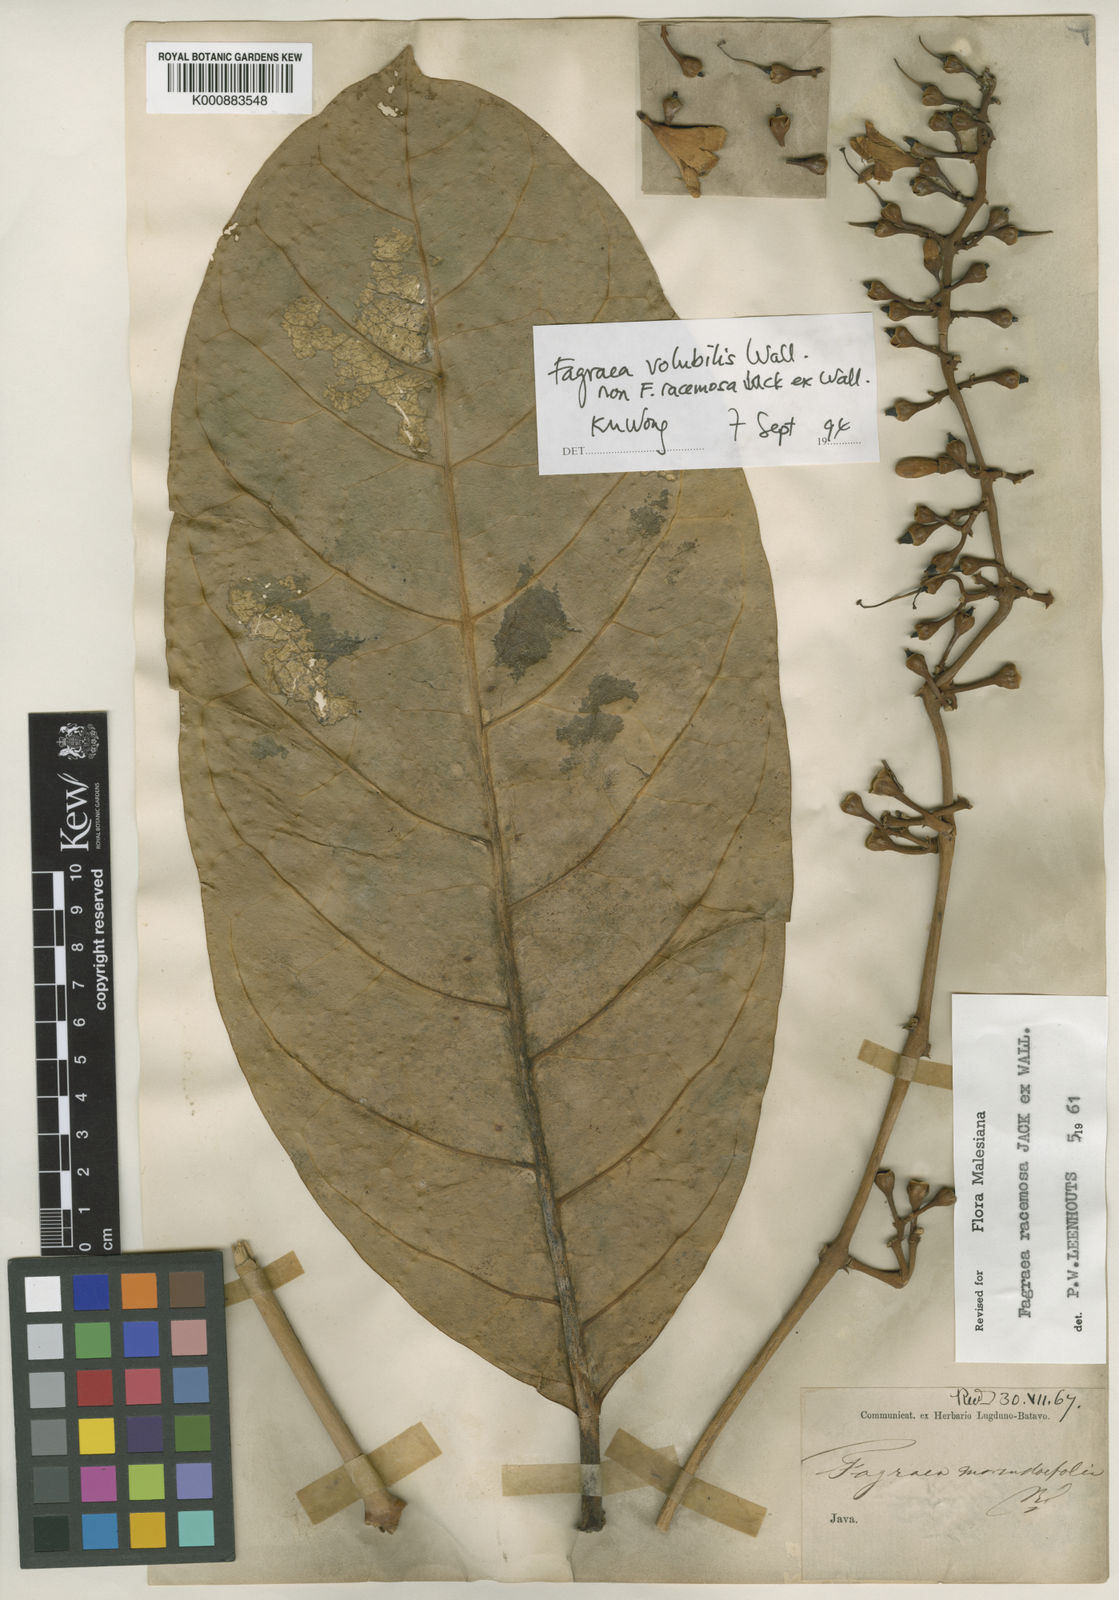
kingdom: Plantae
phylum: Tracheophyta
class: Magnoliopsida
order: Gentianales
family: Gentianaceae
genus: Utania
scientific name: Utania volubilis
